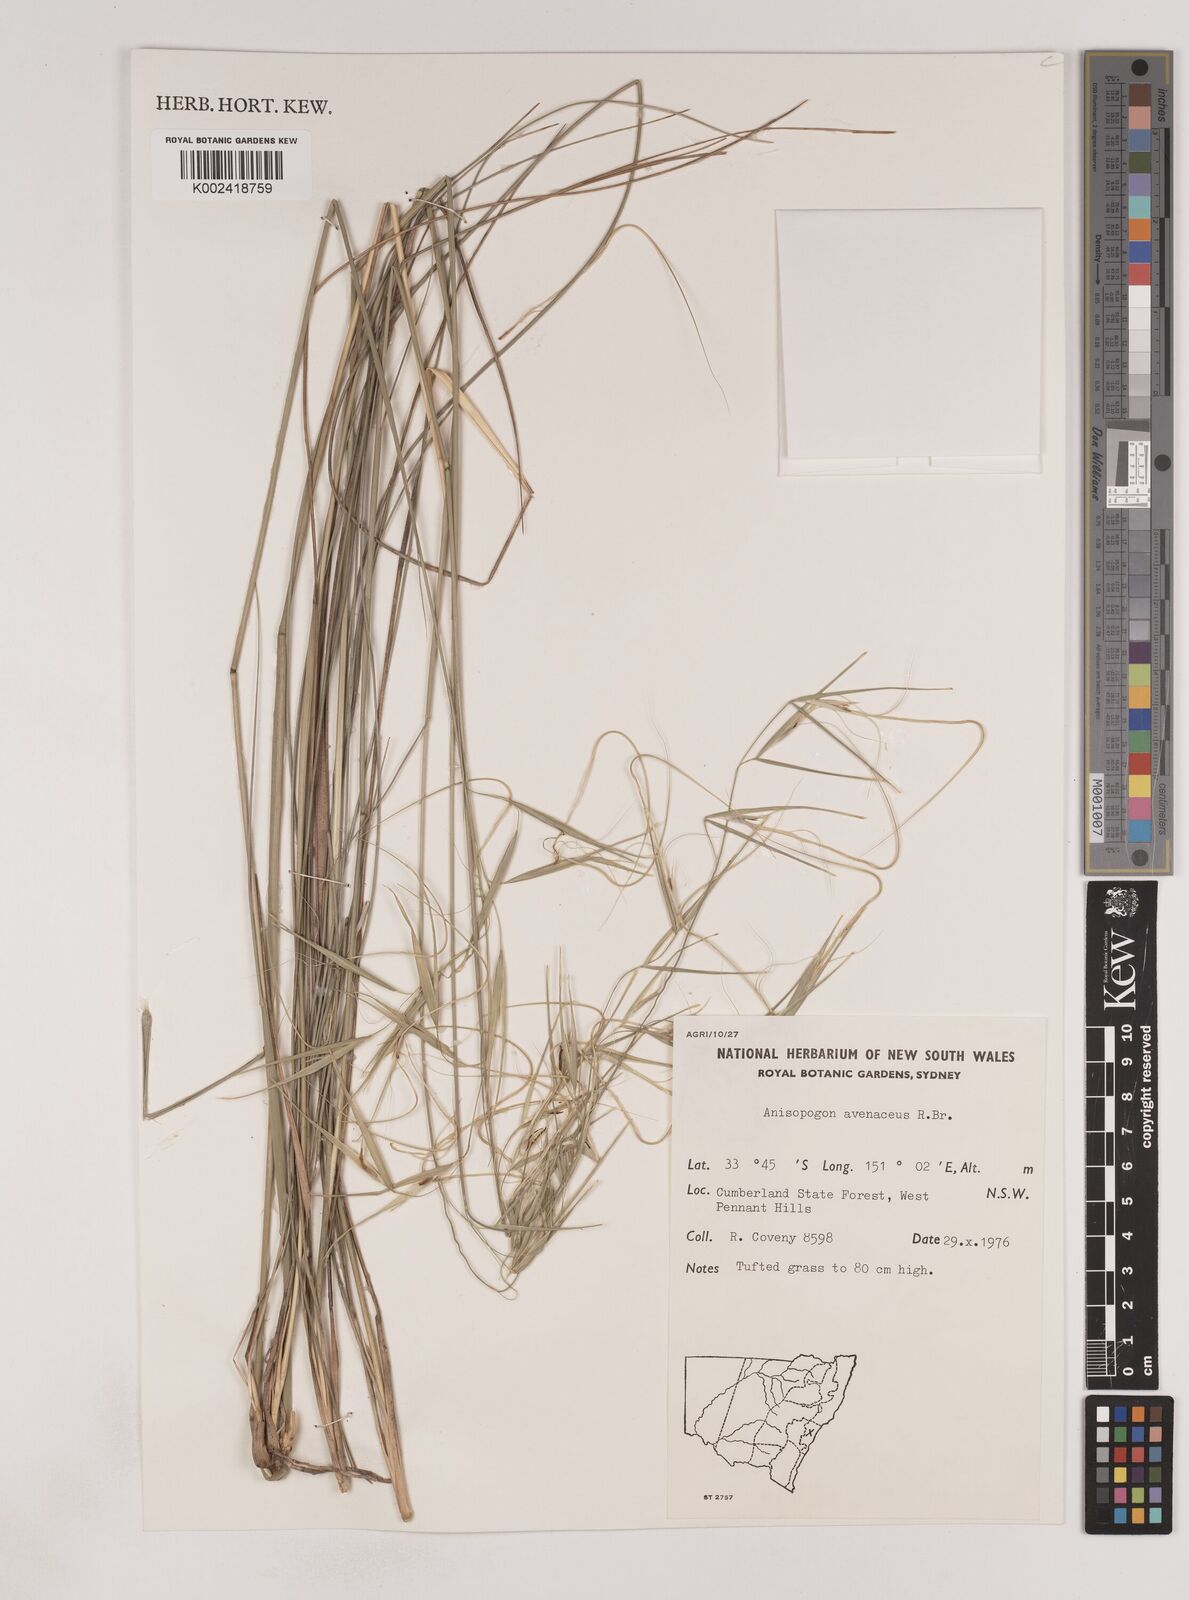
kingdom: Plantae
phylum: Tracheophyta
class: Liliopsida
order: Poales
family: Poaceae
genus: Anisopogon
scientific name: Anisopogon avenaceus
